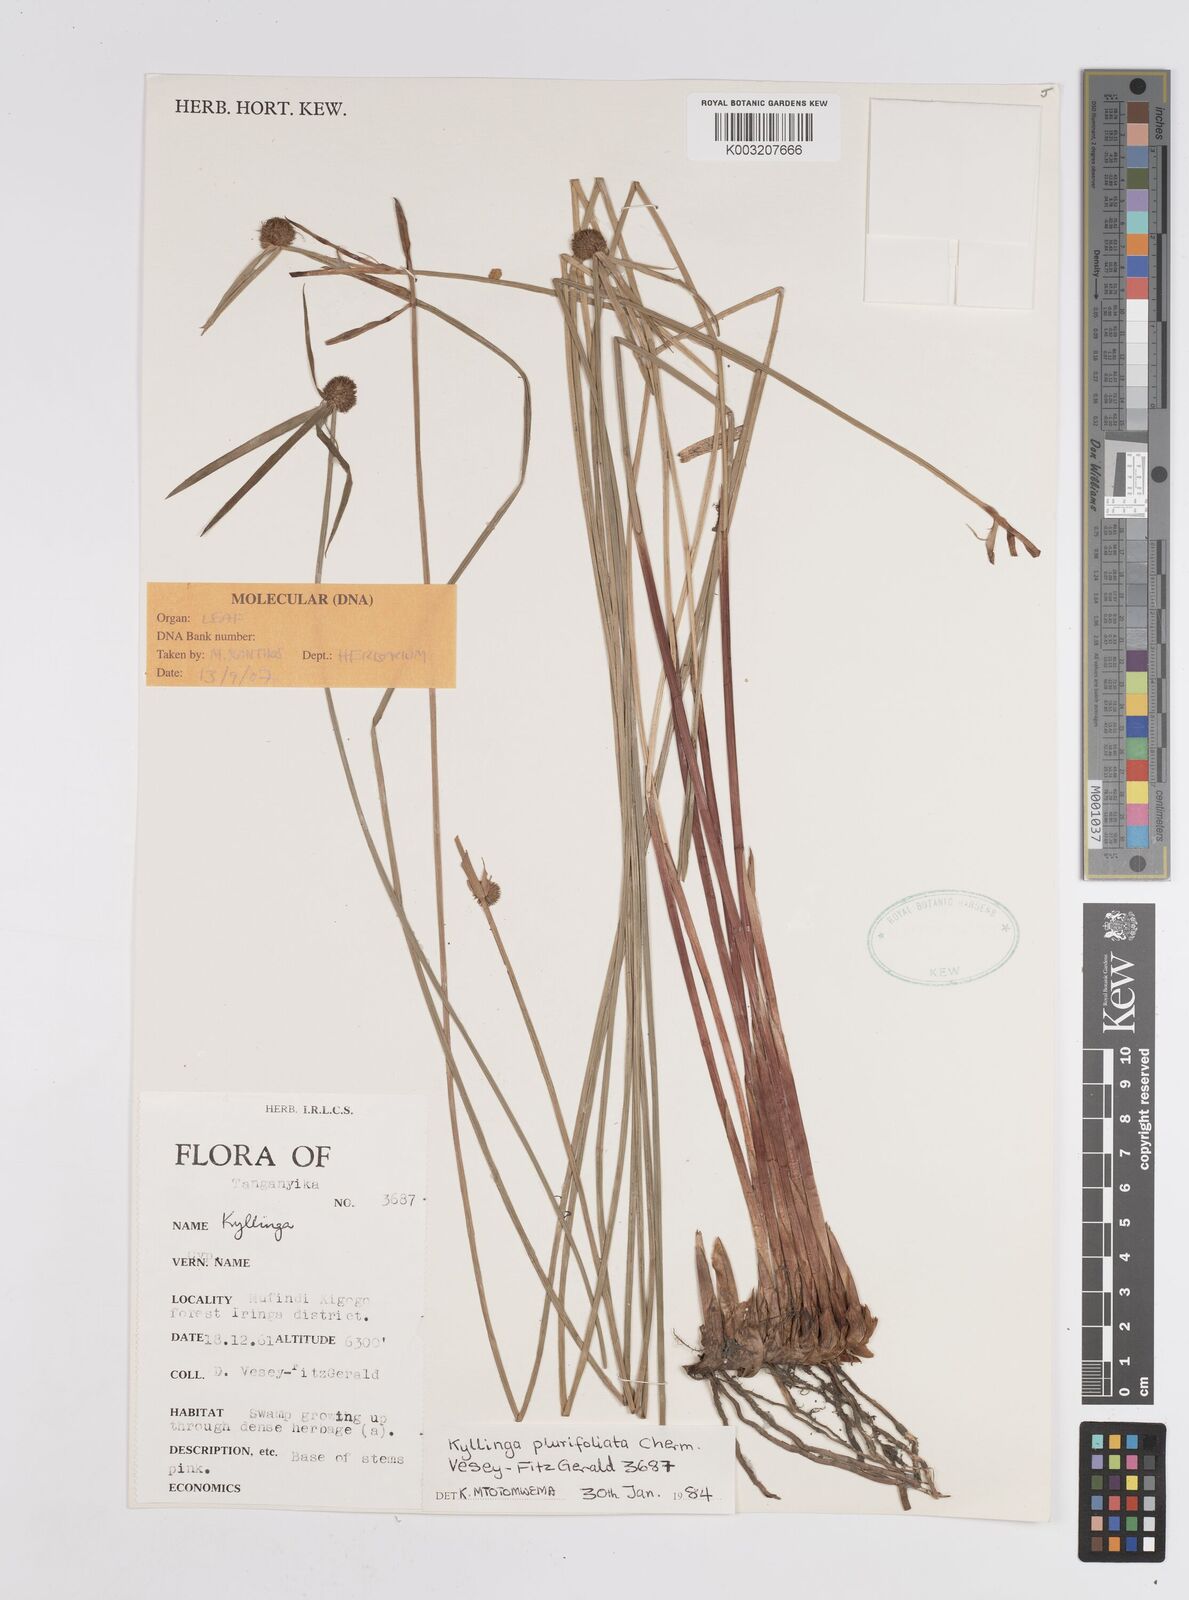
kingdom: Plantae
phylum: Tracheophyta
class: Liliopsida
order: Poales
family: Cyperaceae
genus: Cyperus
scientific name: Cyperus melanospermus
